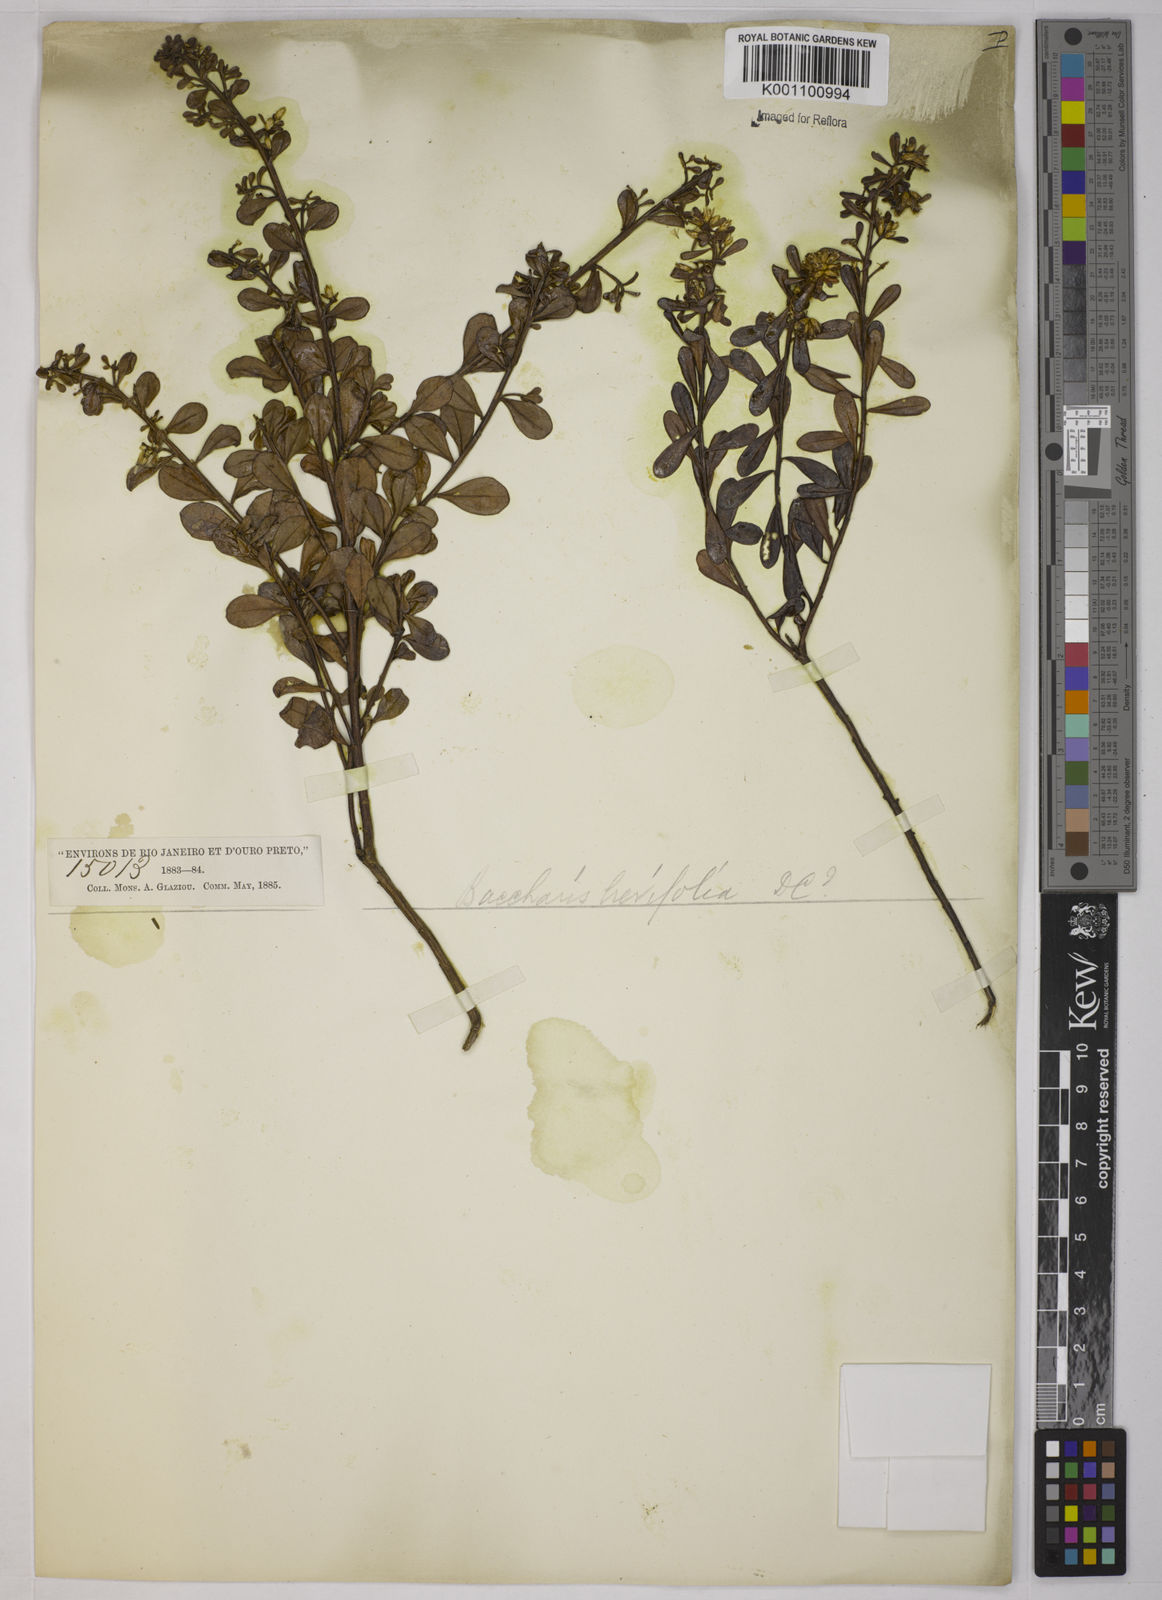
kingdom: Plantae
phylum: Tracheophyta
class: Magnoliopsida
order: Asterales
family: Asteraceae
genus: Baccharis
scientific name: Baccharis brevifolia
